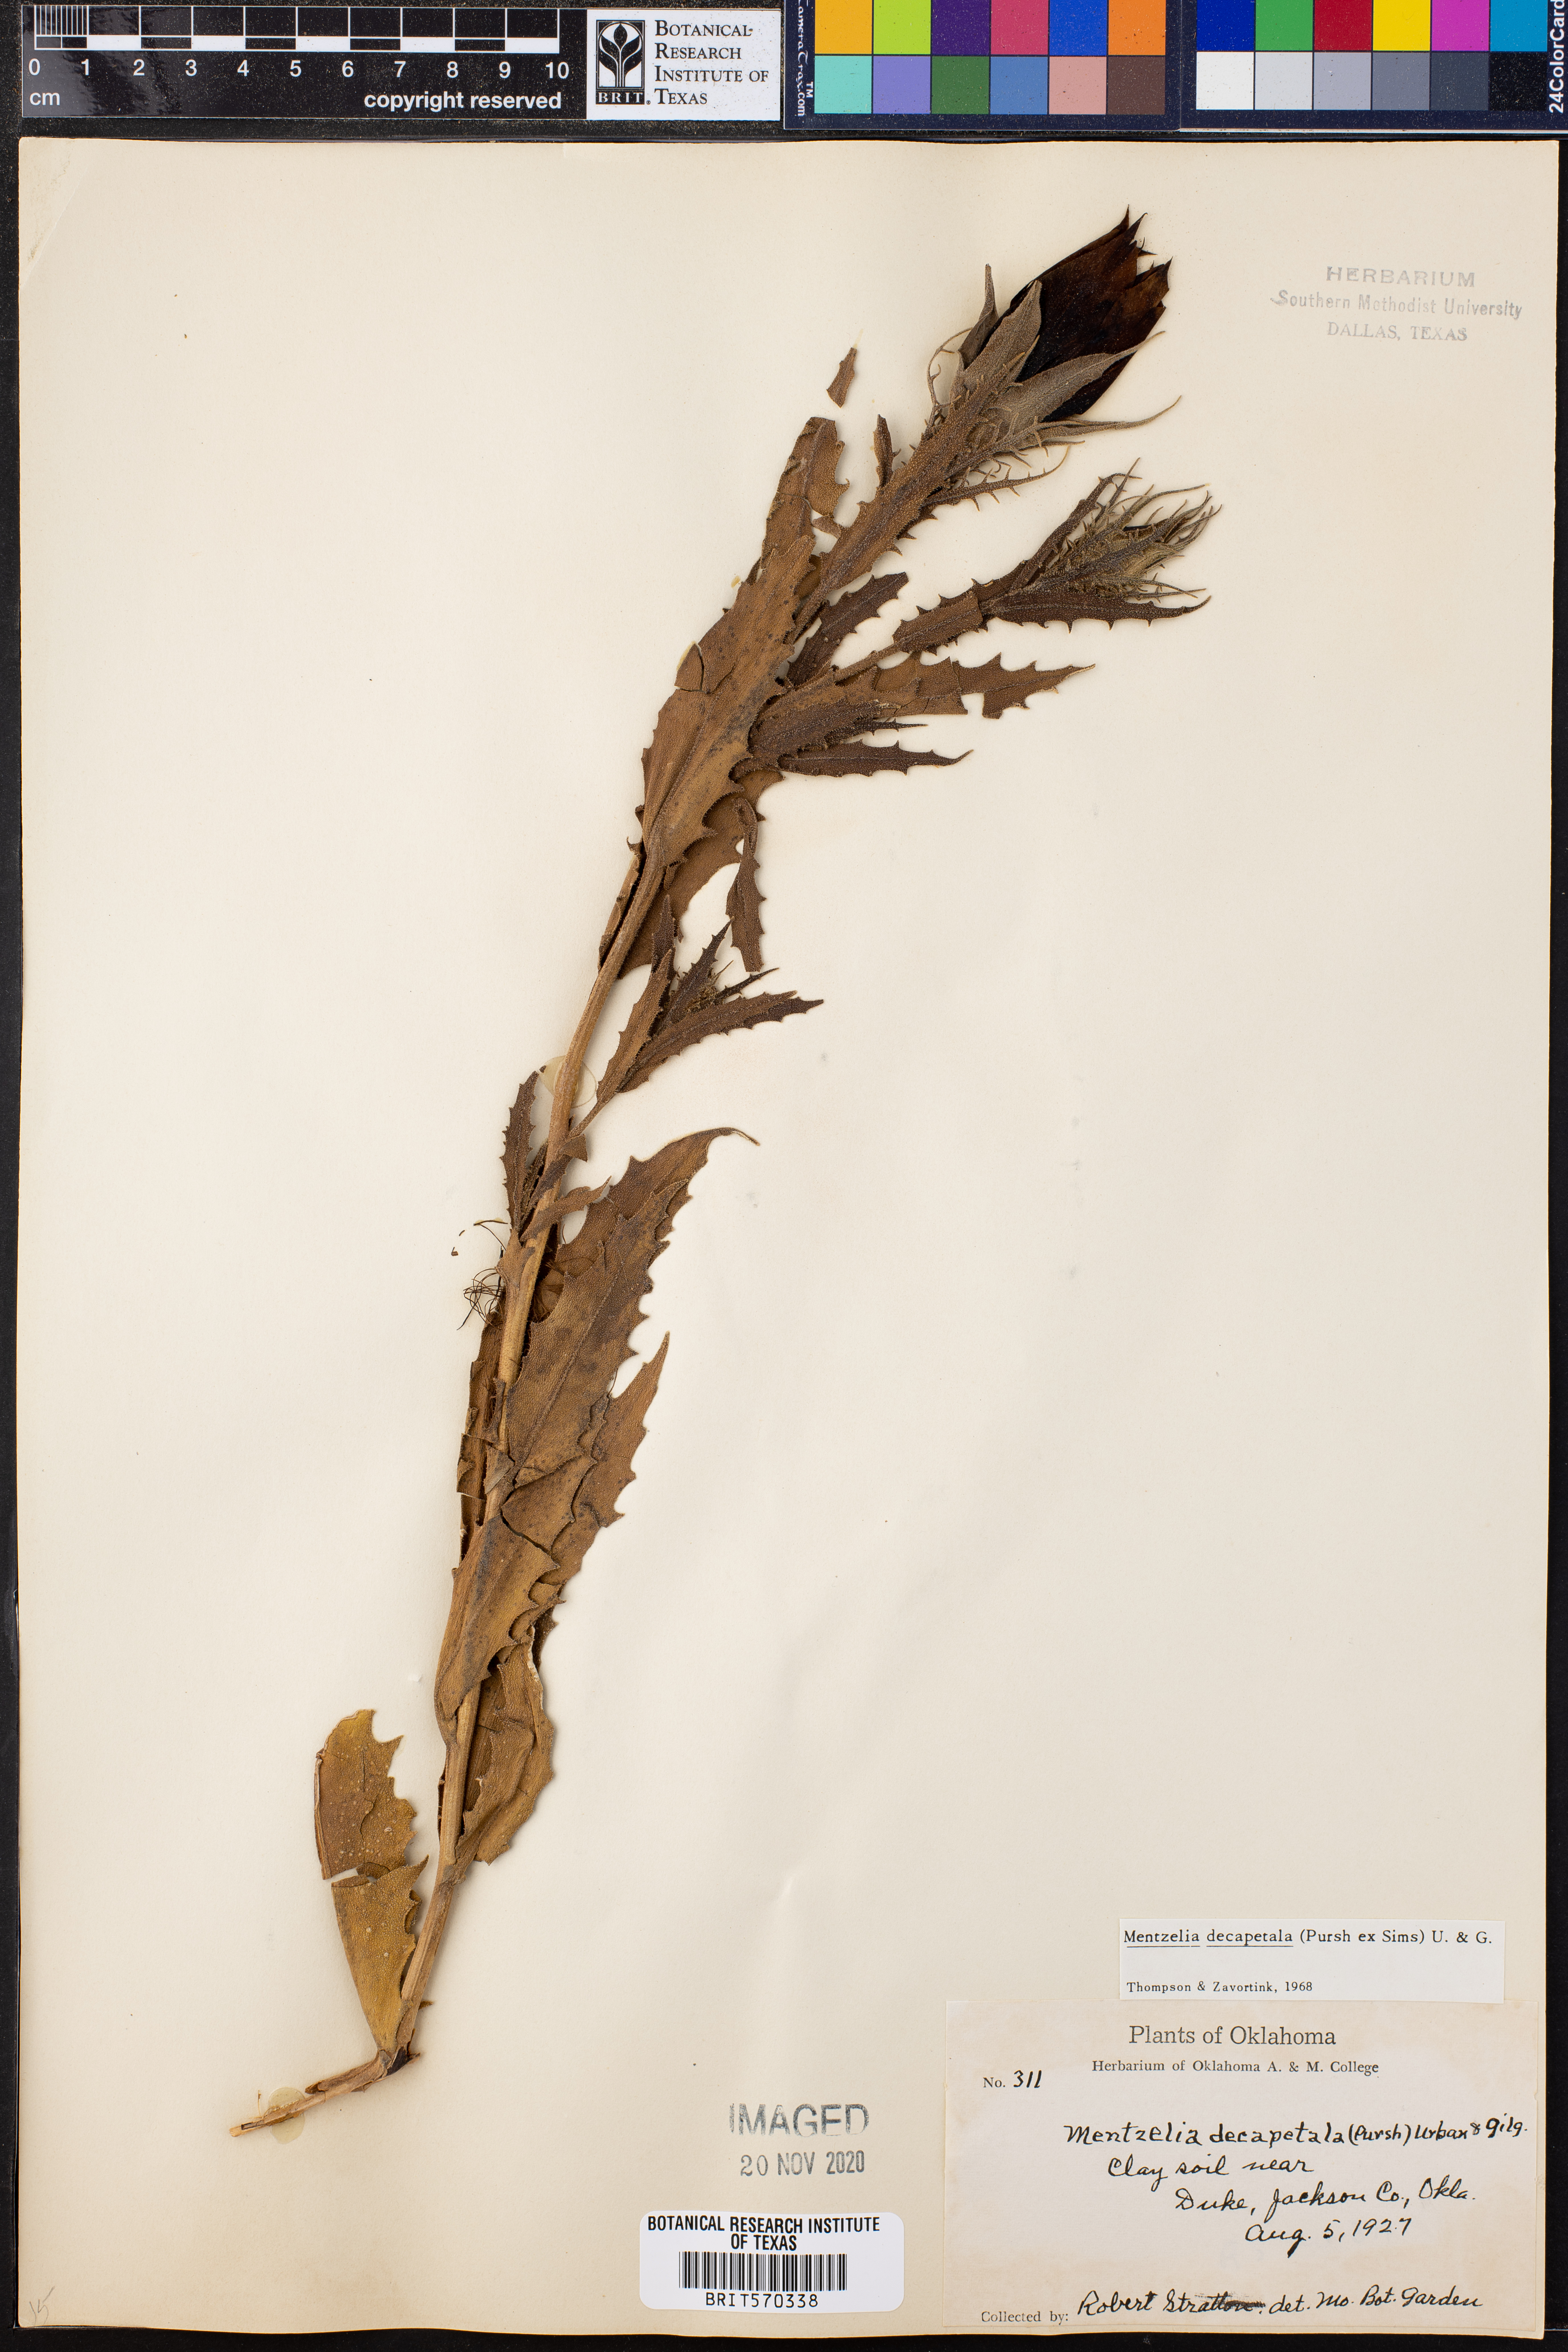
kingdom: Plantae
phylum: Tracheophyta
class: Magnoliopsida
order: Cornales
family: Loasaceae
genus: Mentzelia
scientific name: Mentzelia decapetala
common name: Gumbo-lily
